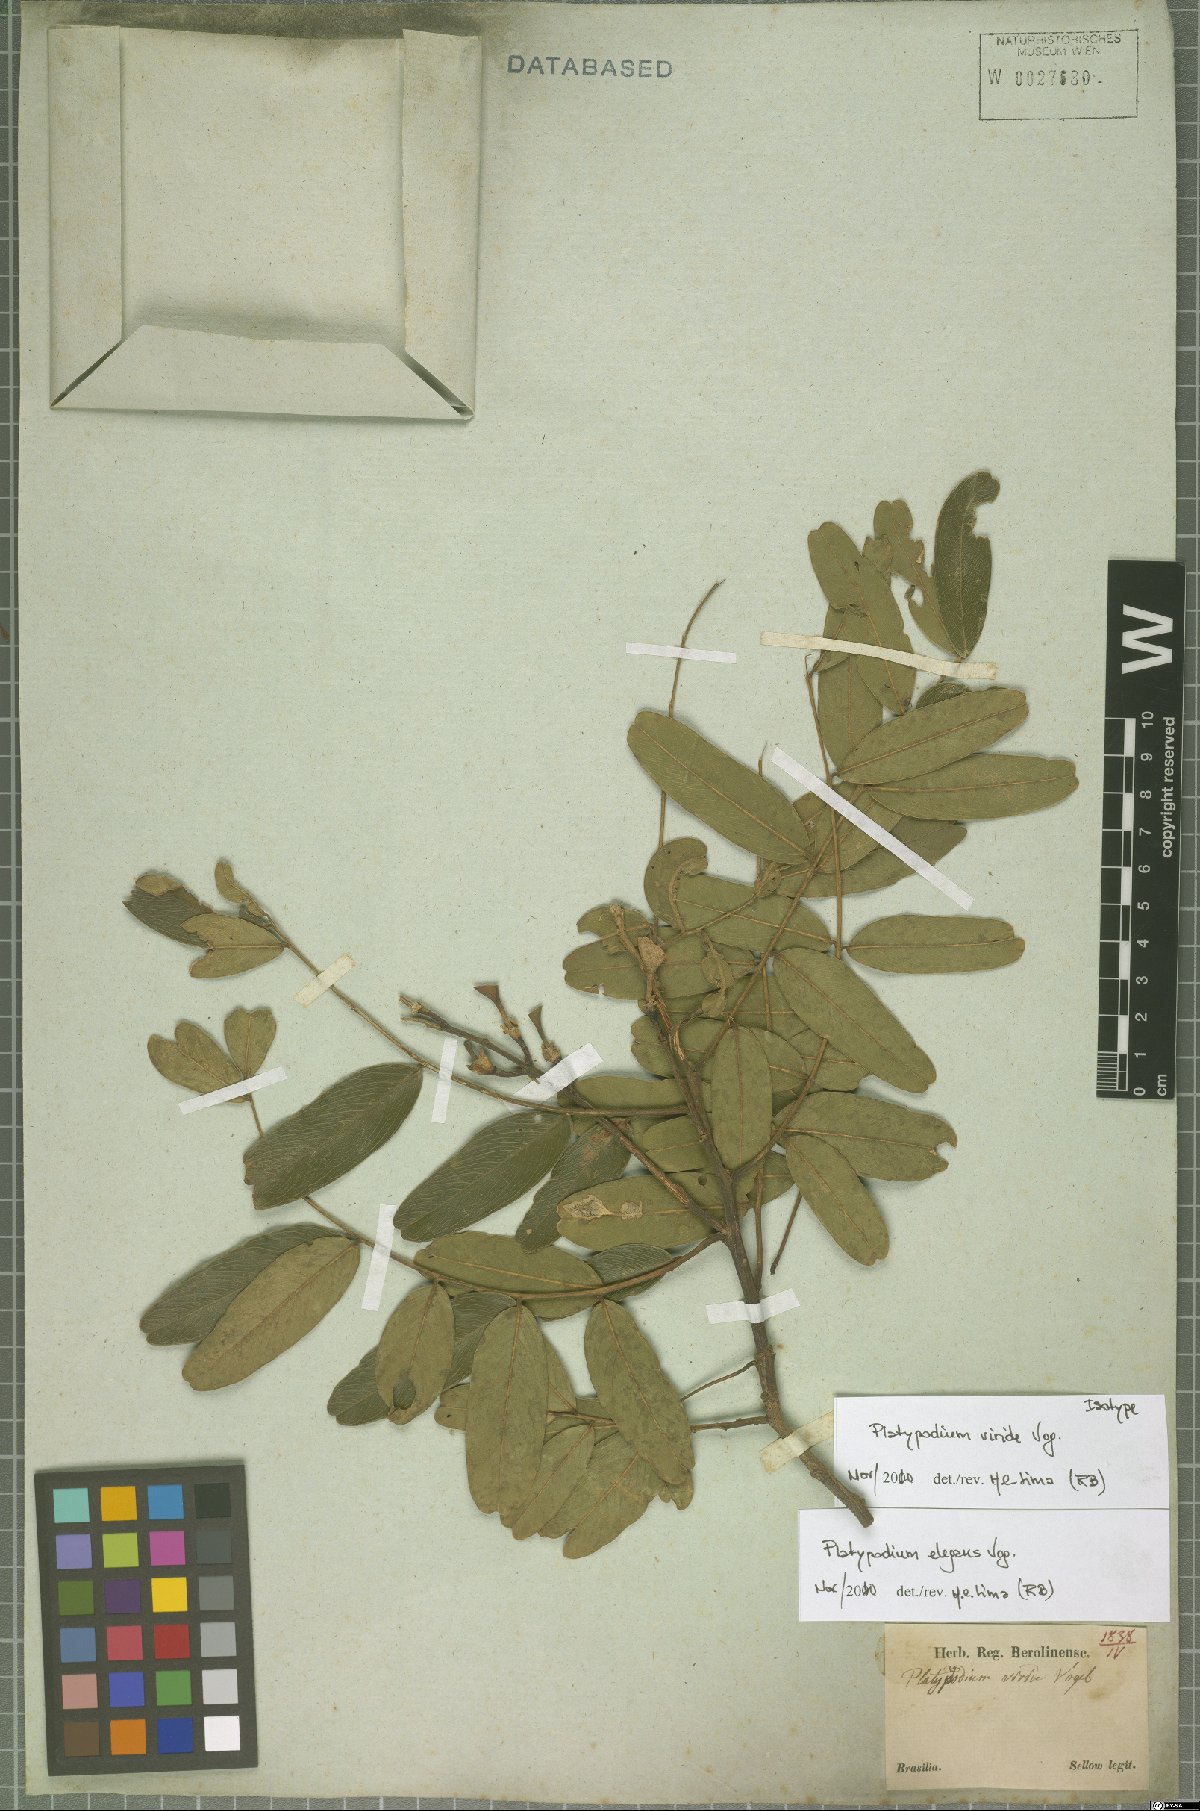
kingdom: Plantae
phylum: Tracheophyta
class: Magnoliopsida
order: Fabales
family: Fabaceae
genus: Platypodium
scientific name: Platypodium elegans
